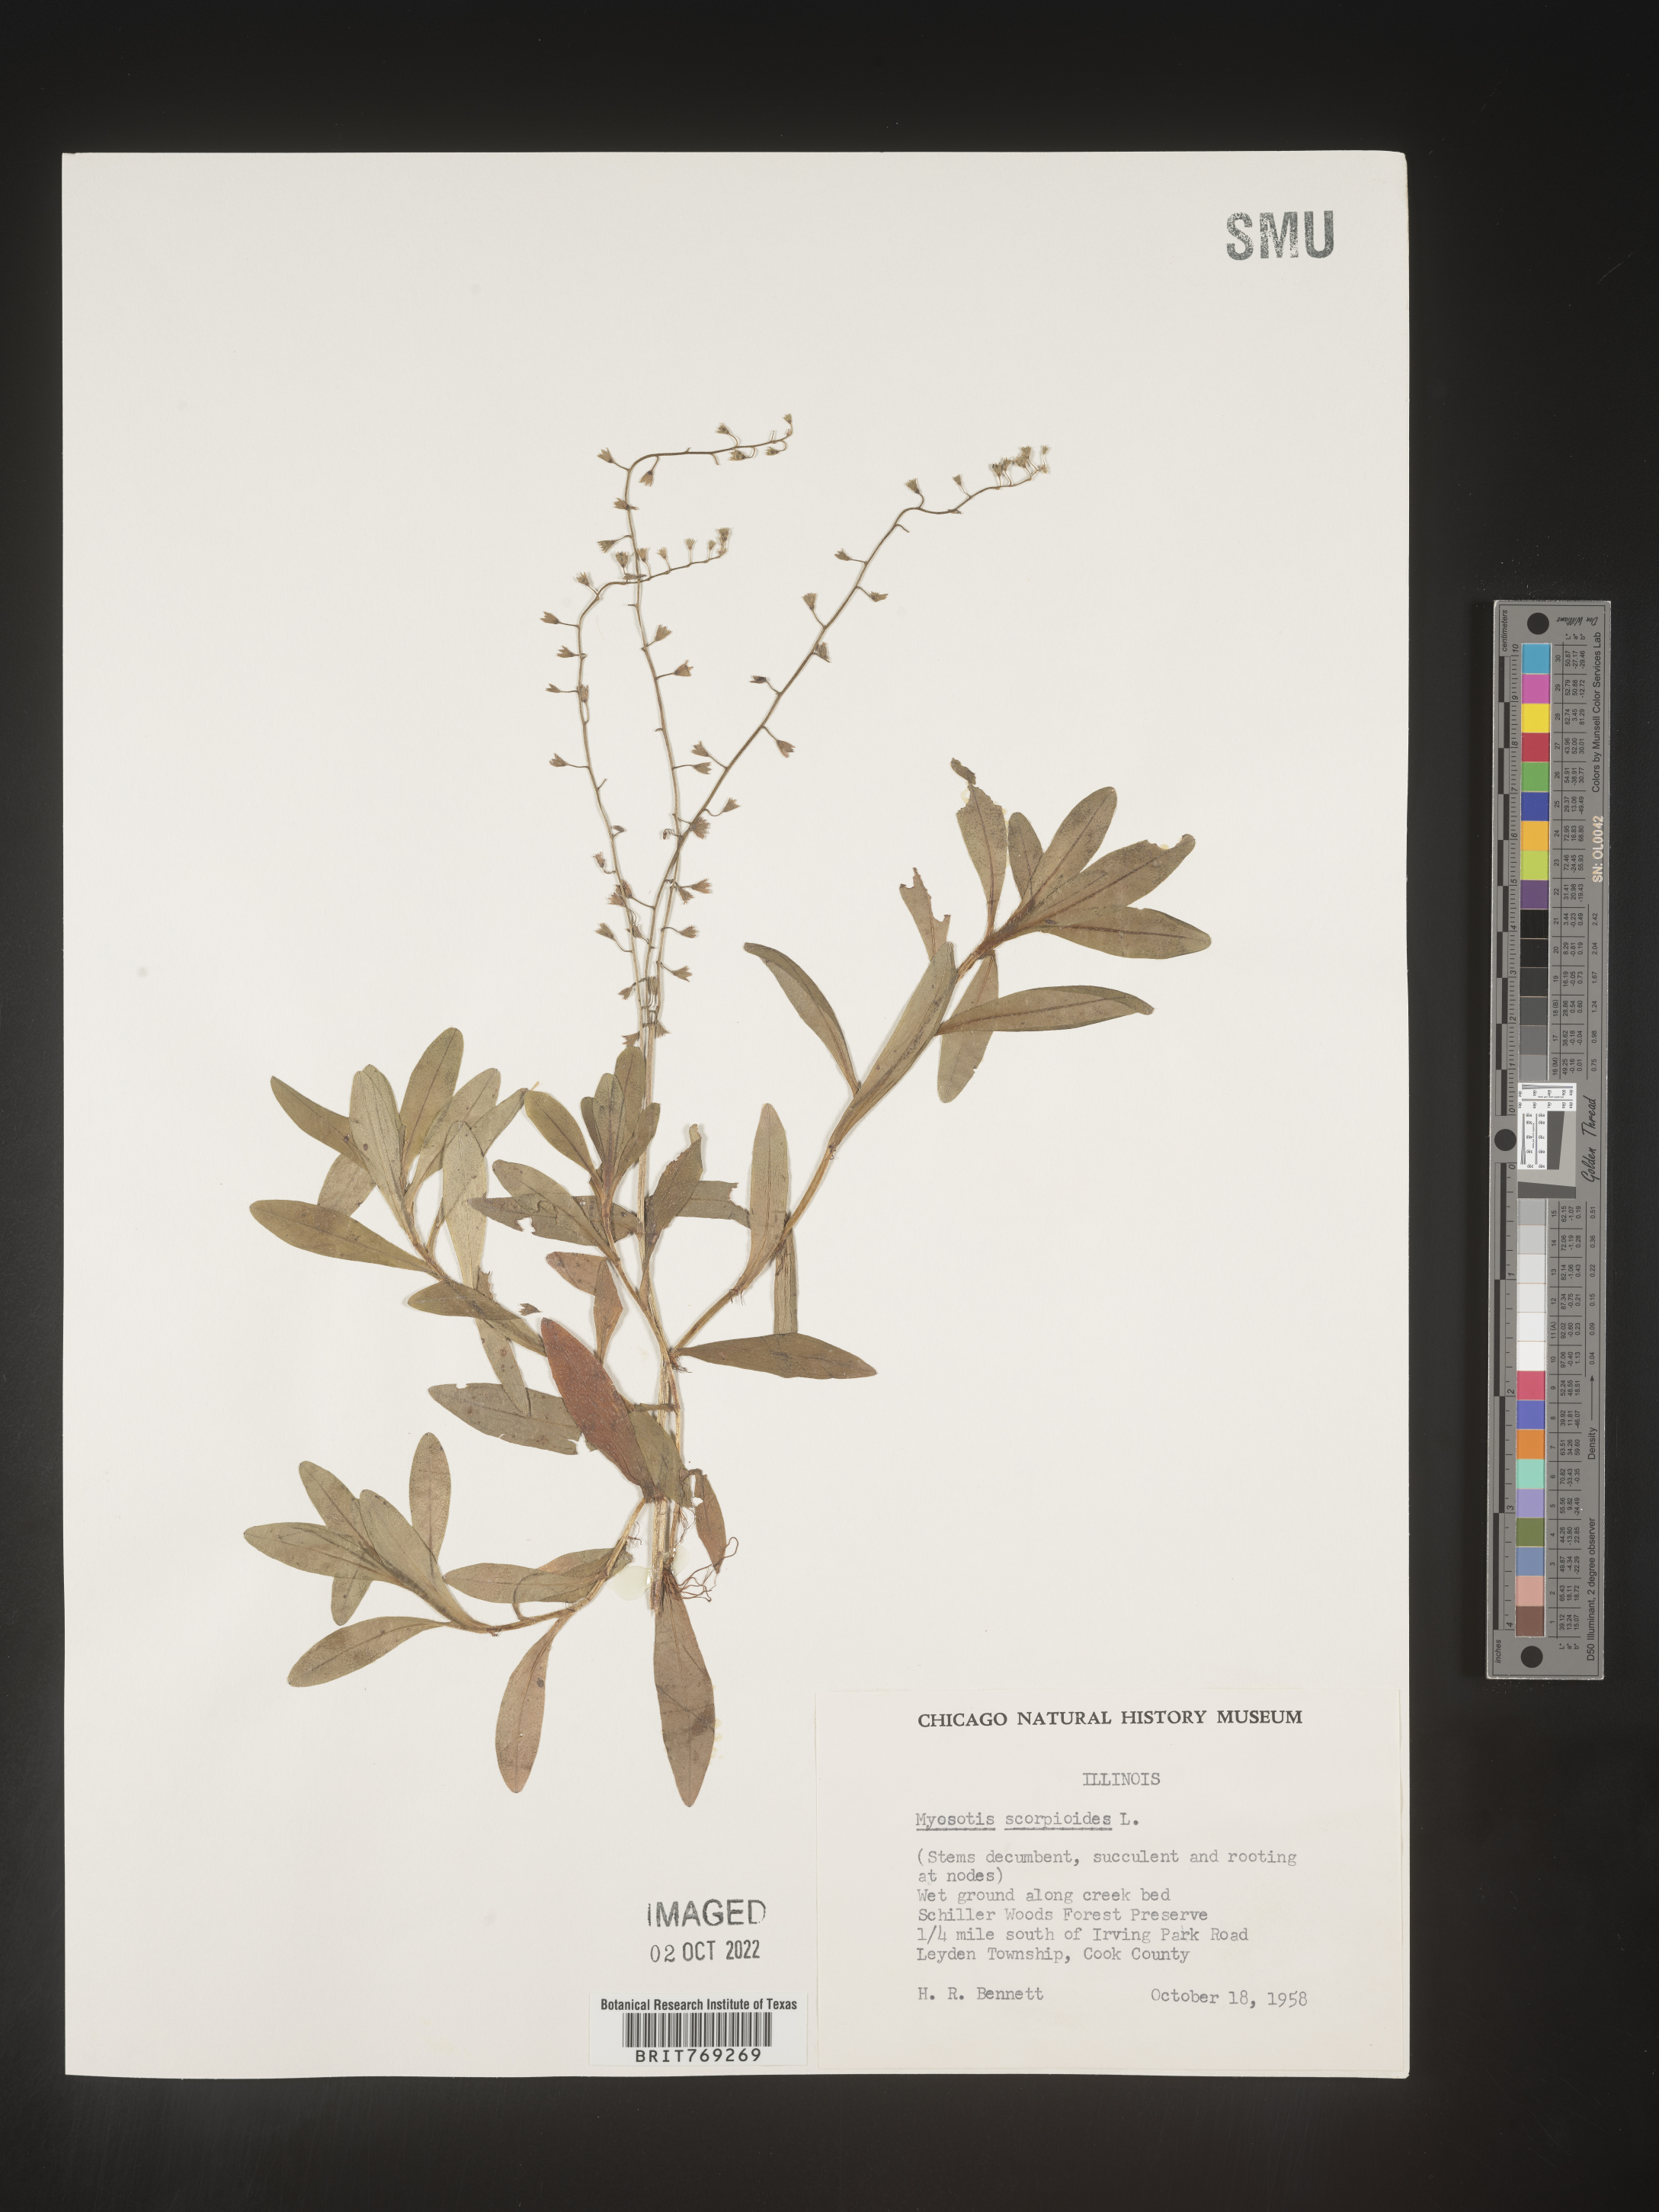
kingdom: Plantae
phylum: Tracheophyta
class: Magnoliopsida
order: Boraginales
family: Boraginaceae
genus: Myosotis
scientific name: Myosotis scorpioides
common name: Water forget-me-not
